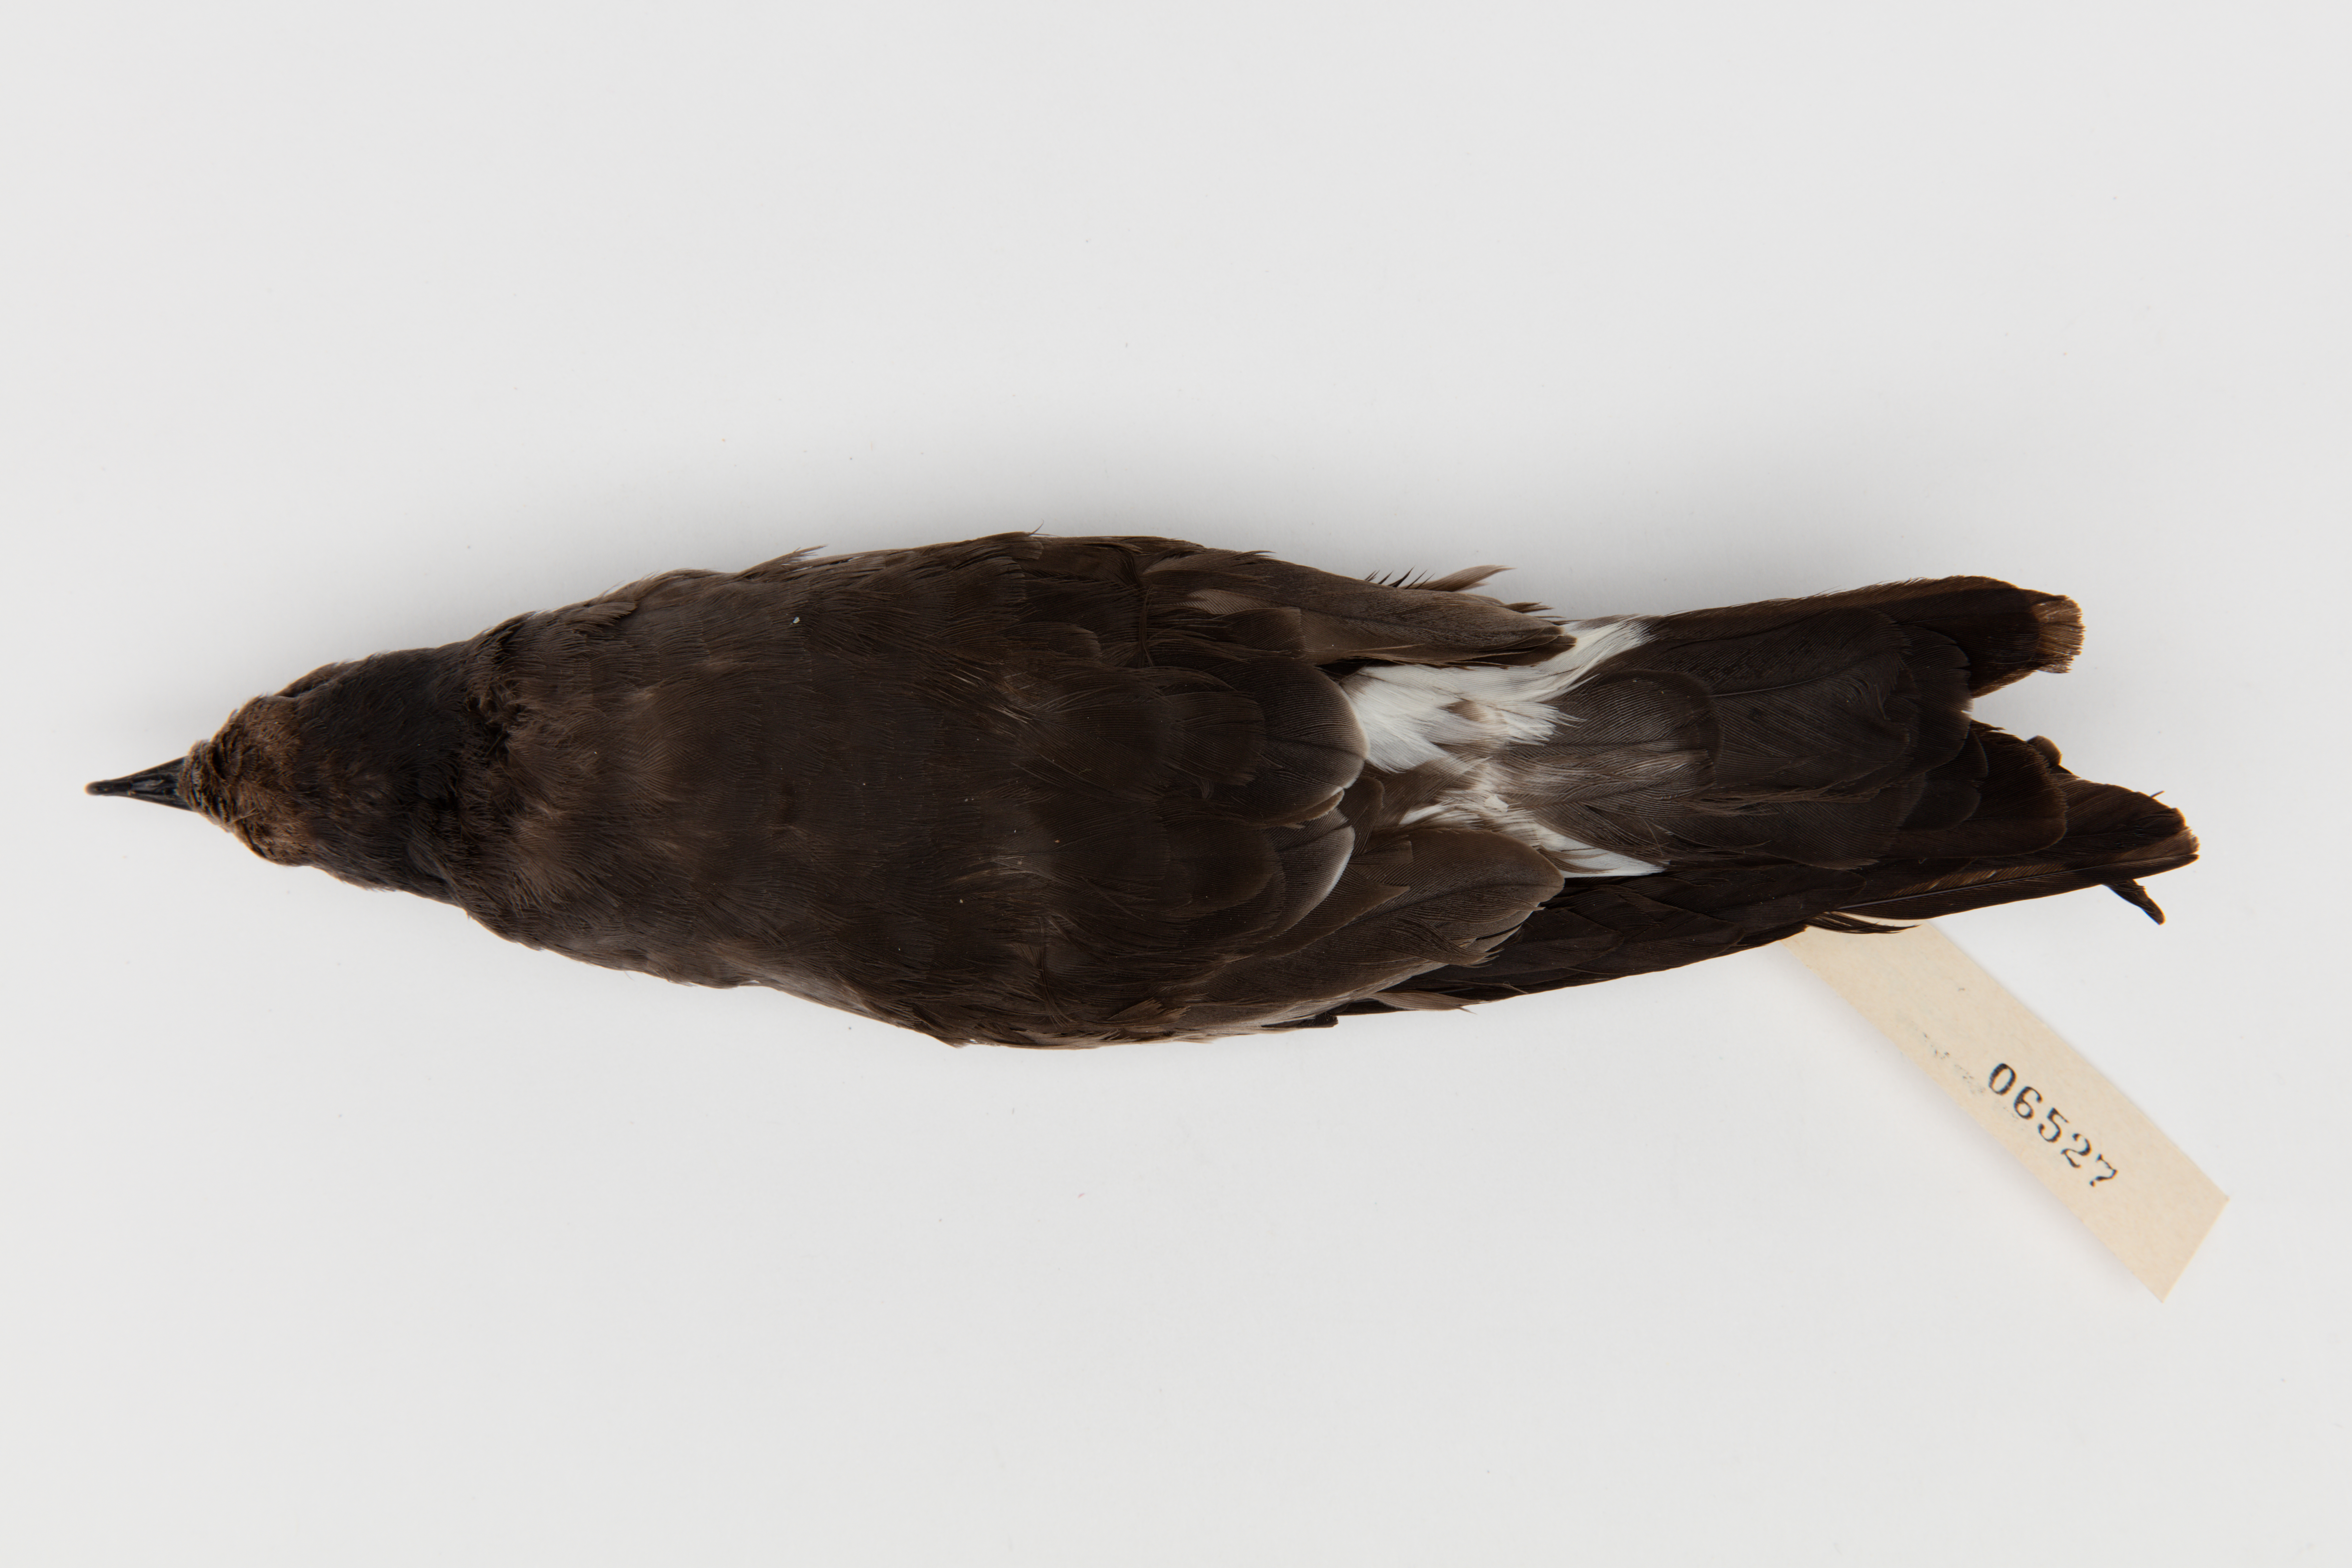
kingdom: Animalia
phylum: Chordata
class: Aves
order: Procellariiformes
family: Hydrobatidae
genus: Oceanodroma
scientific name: Oceanodroma leucorhoa
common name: Leach's storm-petrel
